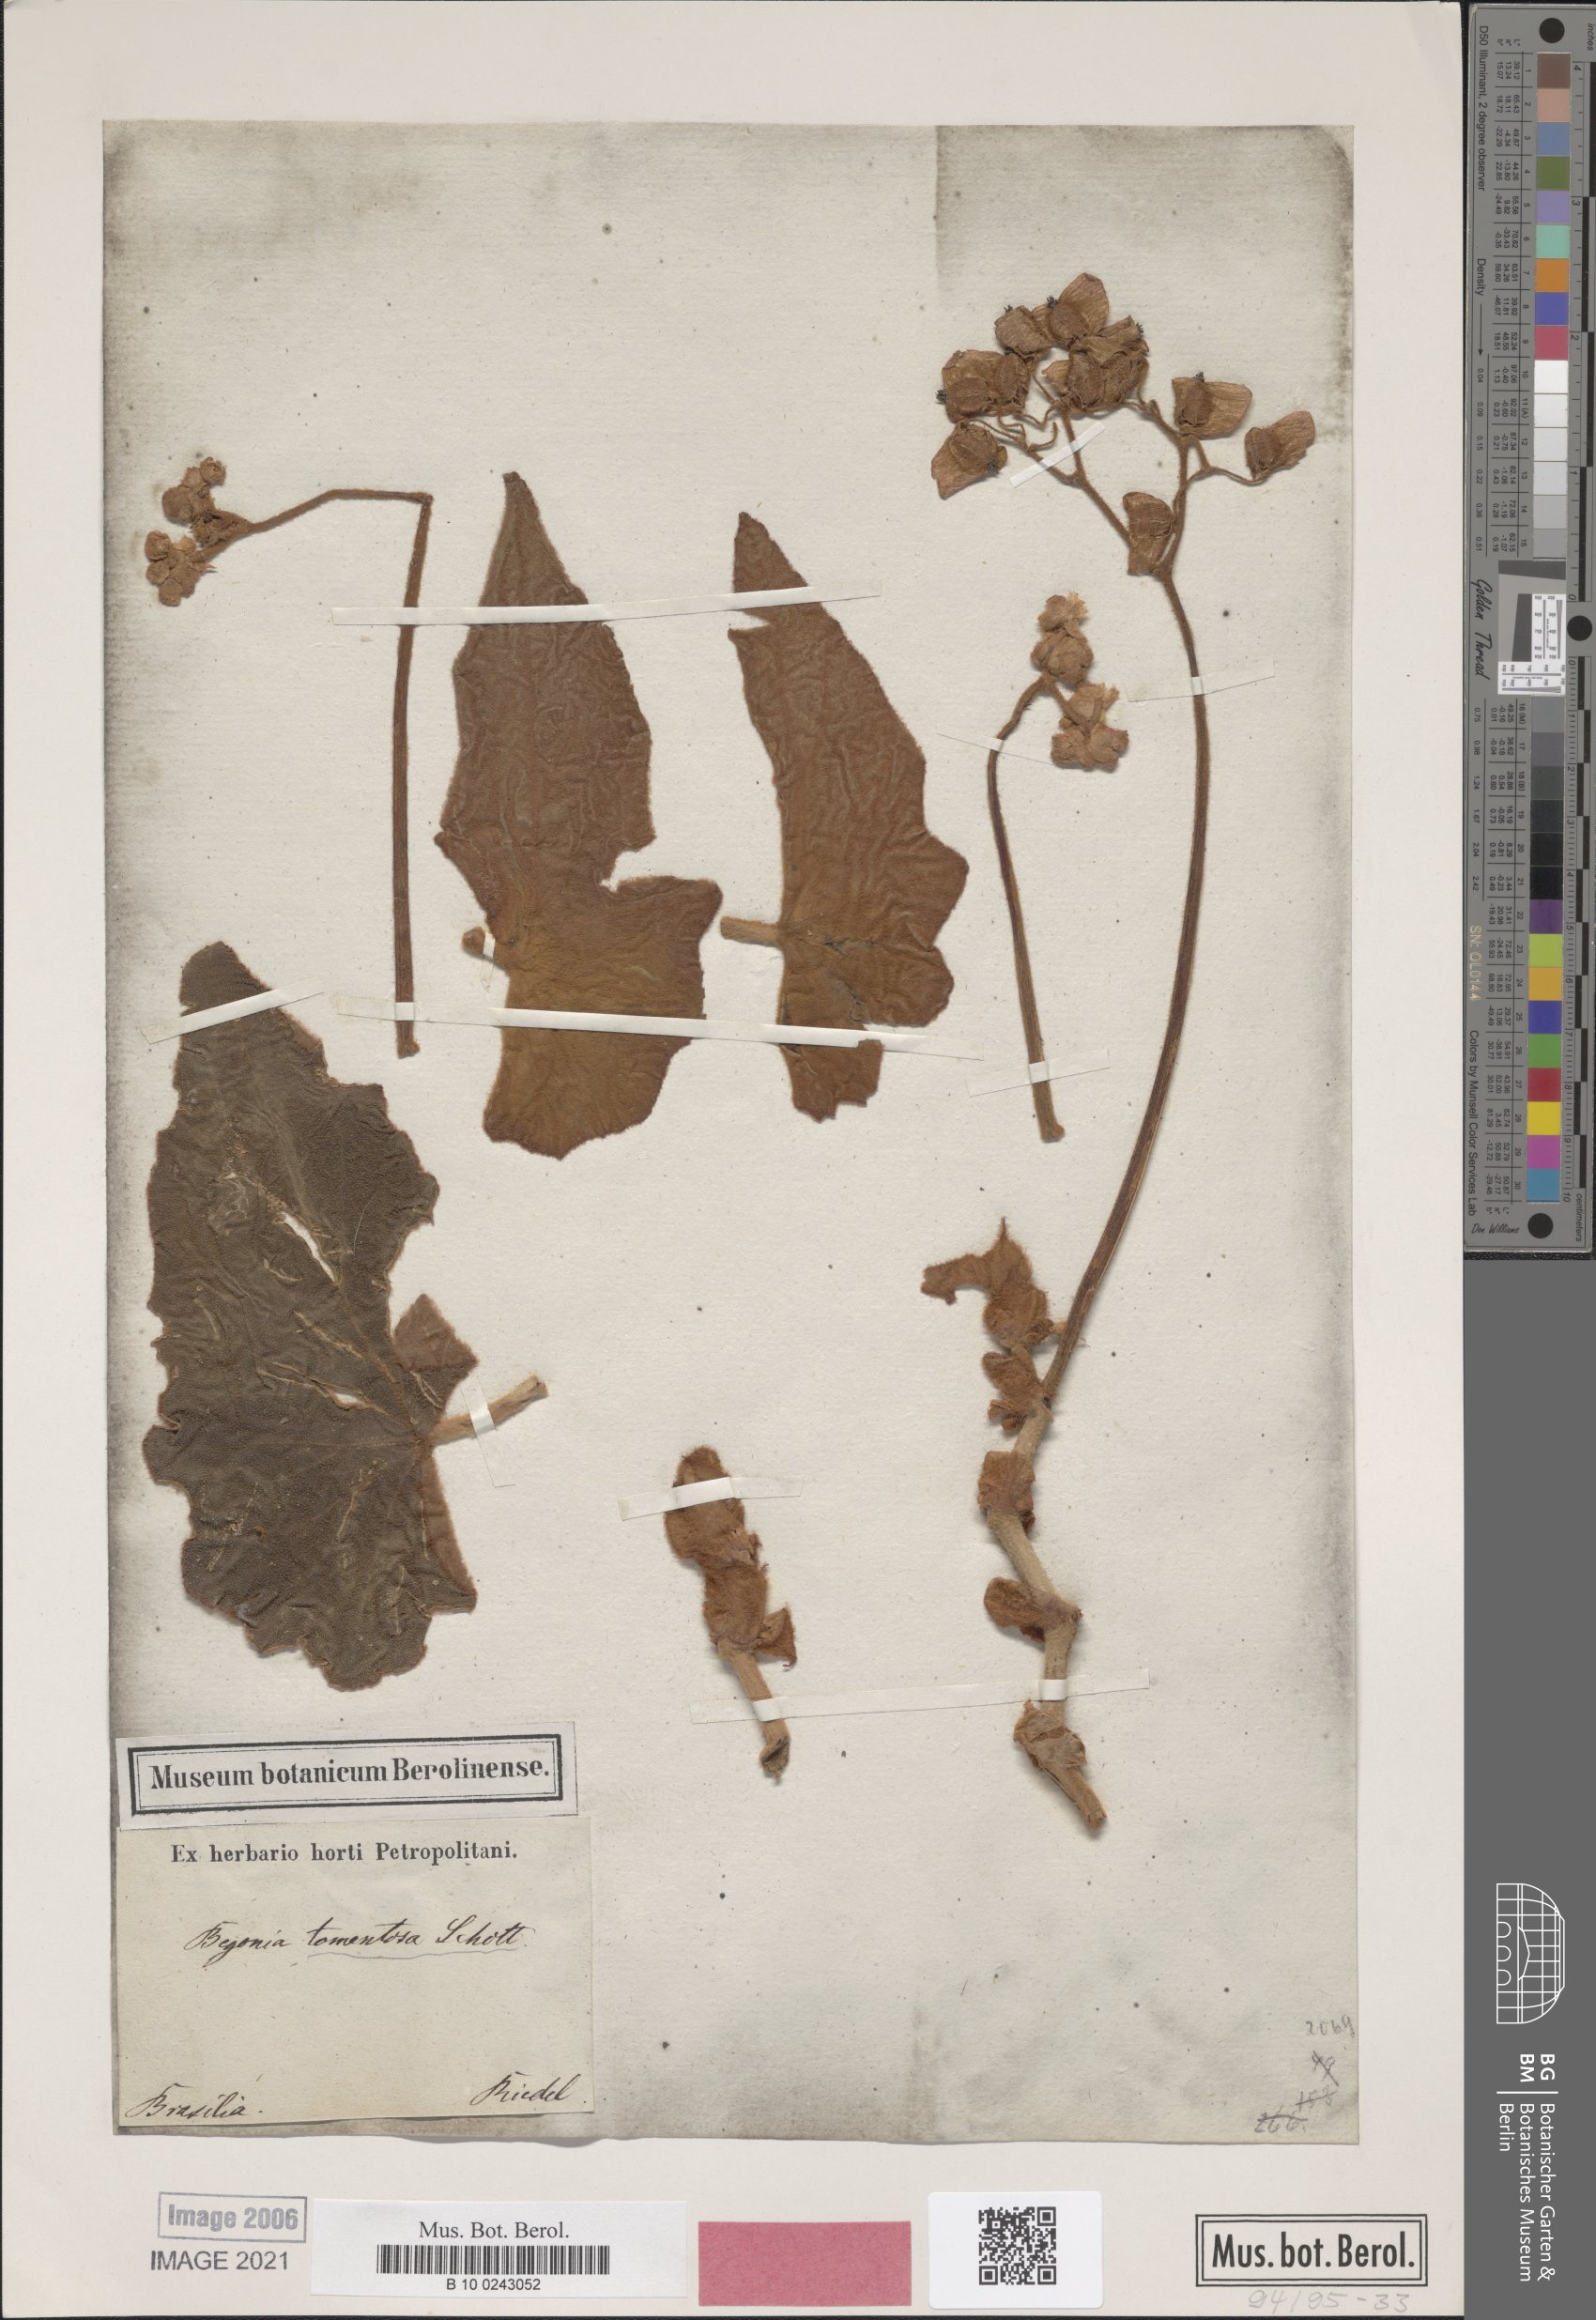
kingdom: Plantae
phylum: Tracheophyta
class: Magnoliopsida
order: Cucurbitales
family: Begoniaceae
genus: Begonia
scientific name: Begonia tomentosa
